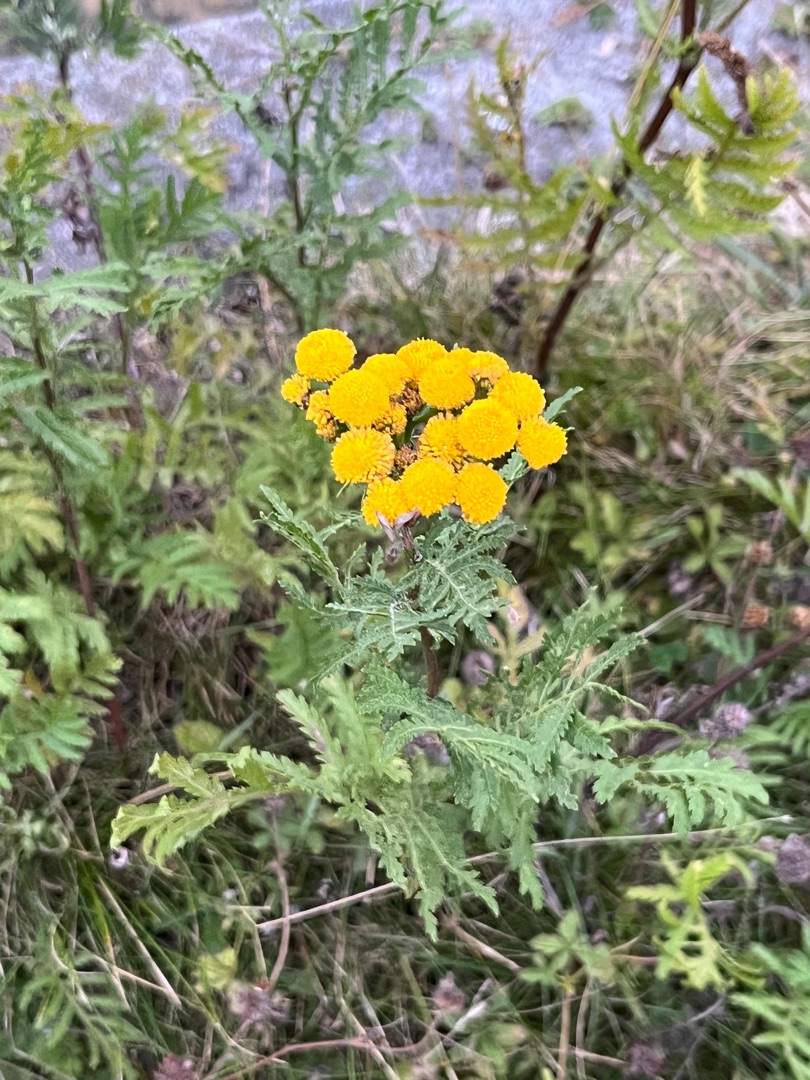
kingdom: Plantae
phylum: Tracheophyta
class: Magnoliopsida
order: Asterales
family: Asteraceae
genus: Tanacetum
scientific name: Tanacetum vulgare
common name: Rejnfan
